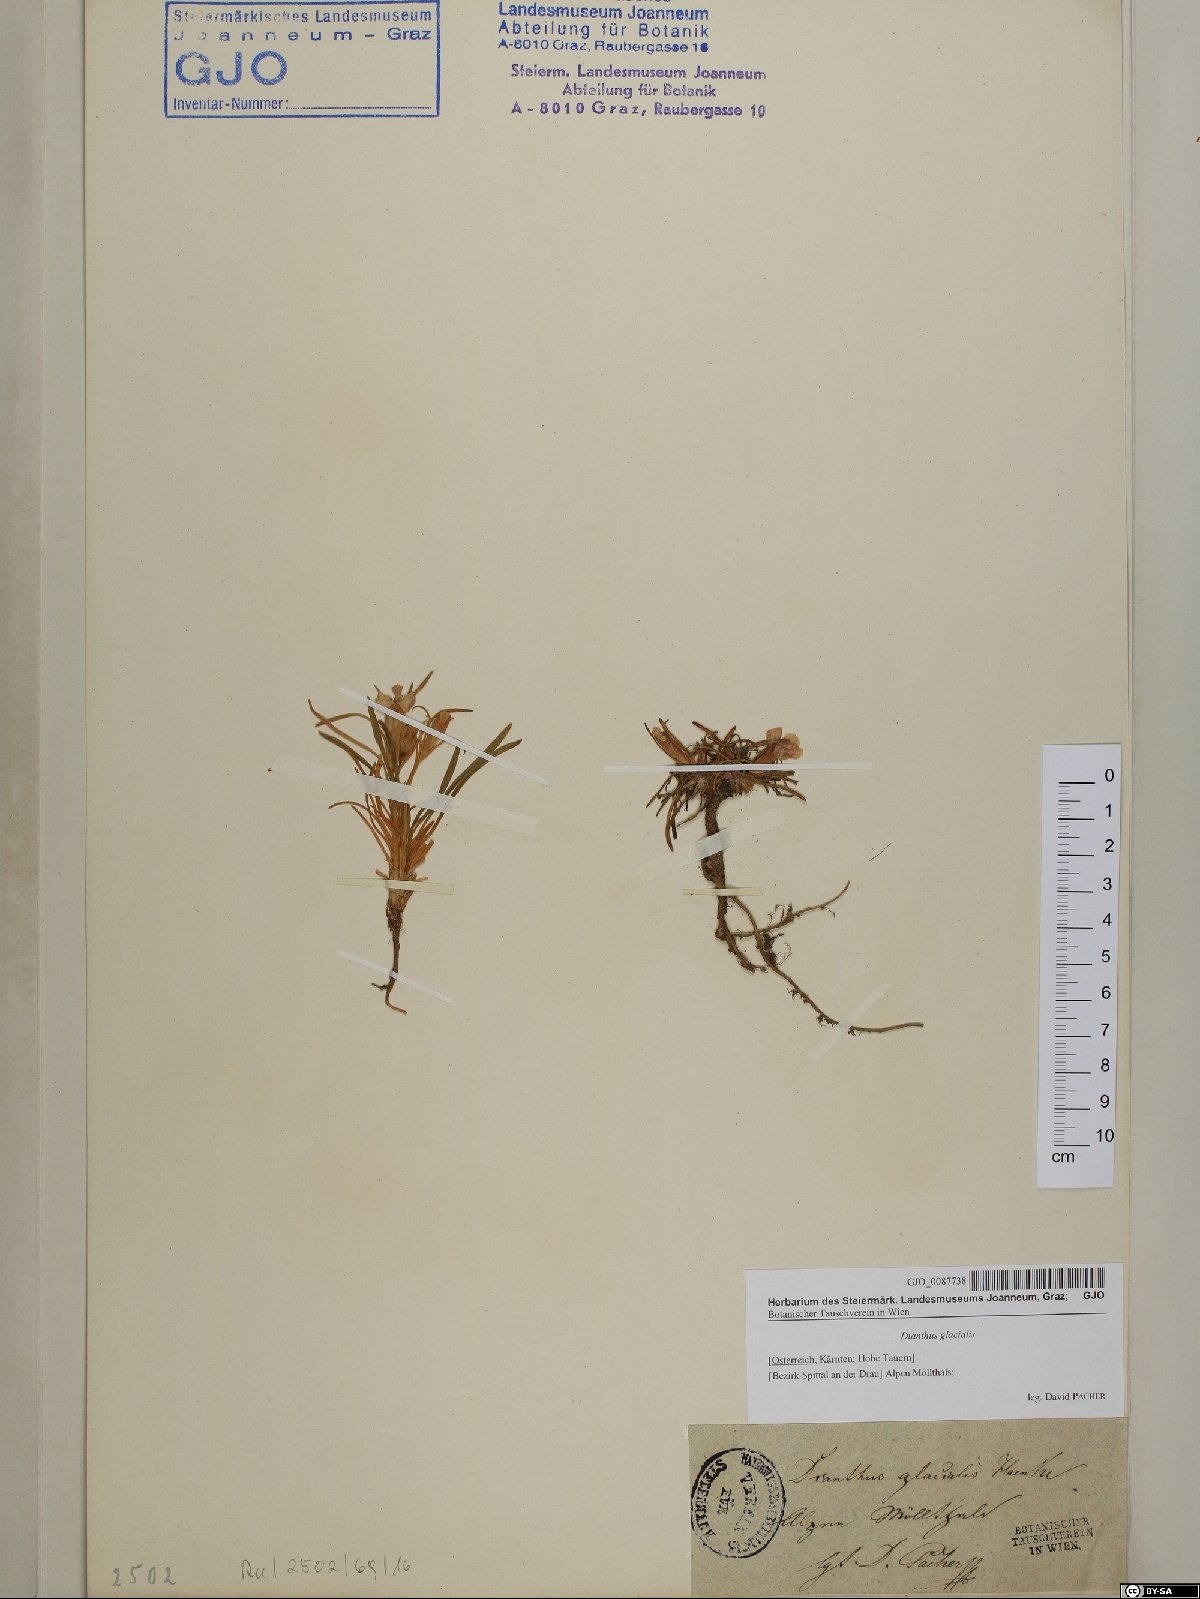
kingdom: Plantae
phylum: Tracheophyta
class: Magnoliopsida
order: Caryophyllales
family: Caryophyllaceae
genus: Dianthus
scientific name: Dianthus glacialis
